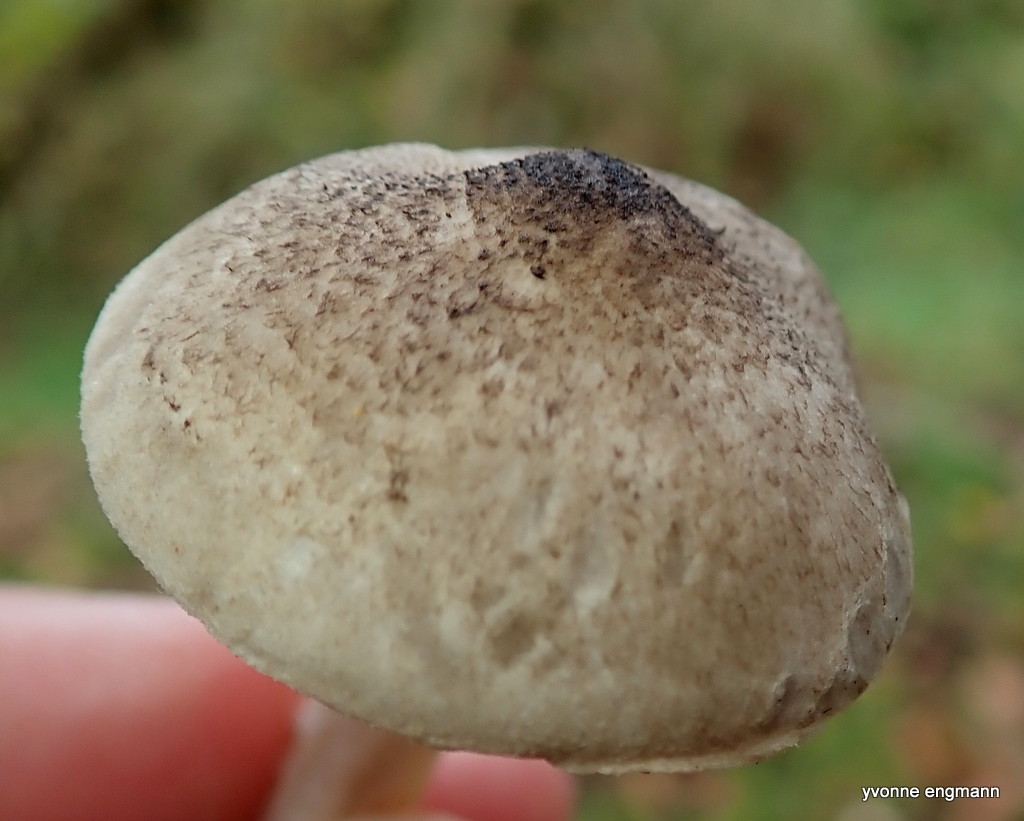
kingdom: Fungi
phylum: Basidiomycota
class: Agaricomycetes
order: Agaricales
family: Tricholomataceae
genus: Tricholoma
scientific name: Tricholoma argyraceum
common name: spids ridderhat
